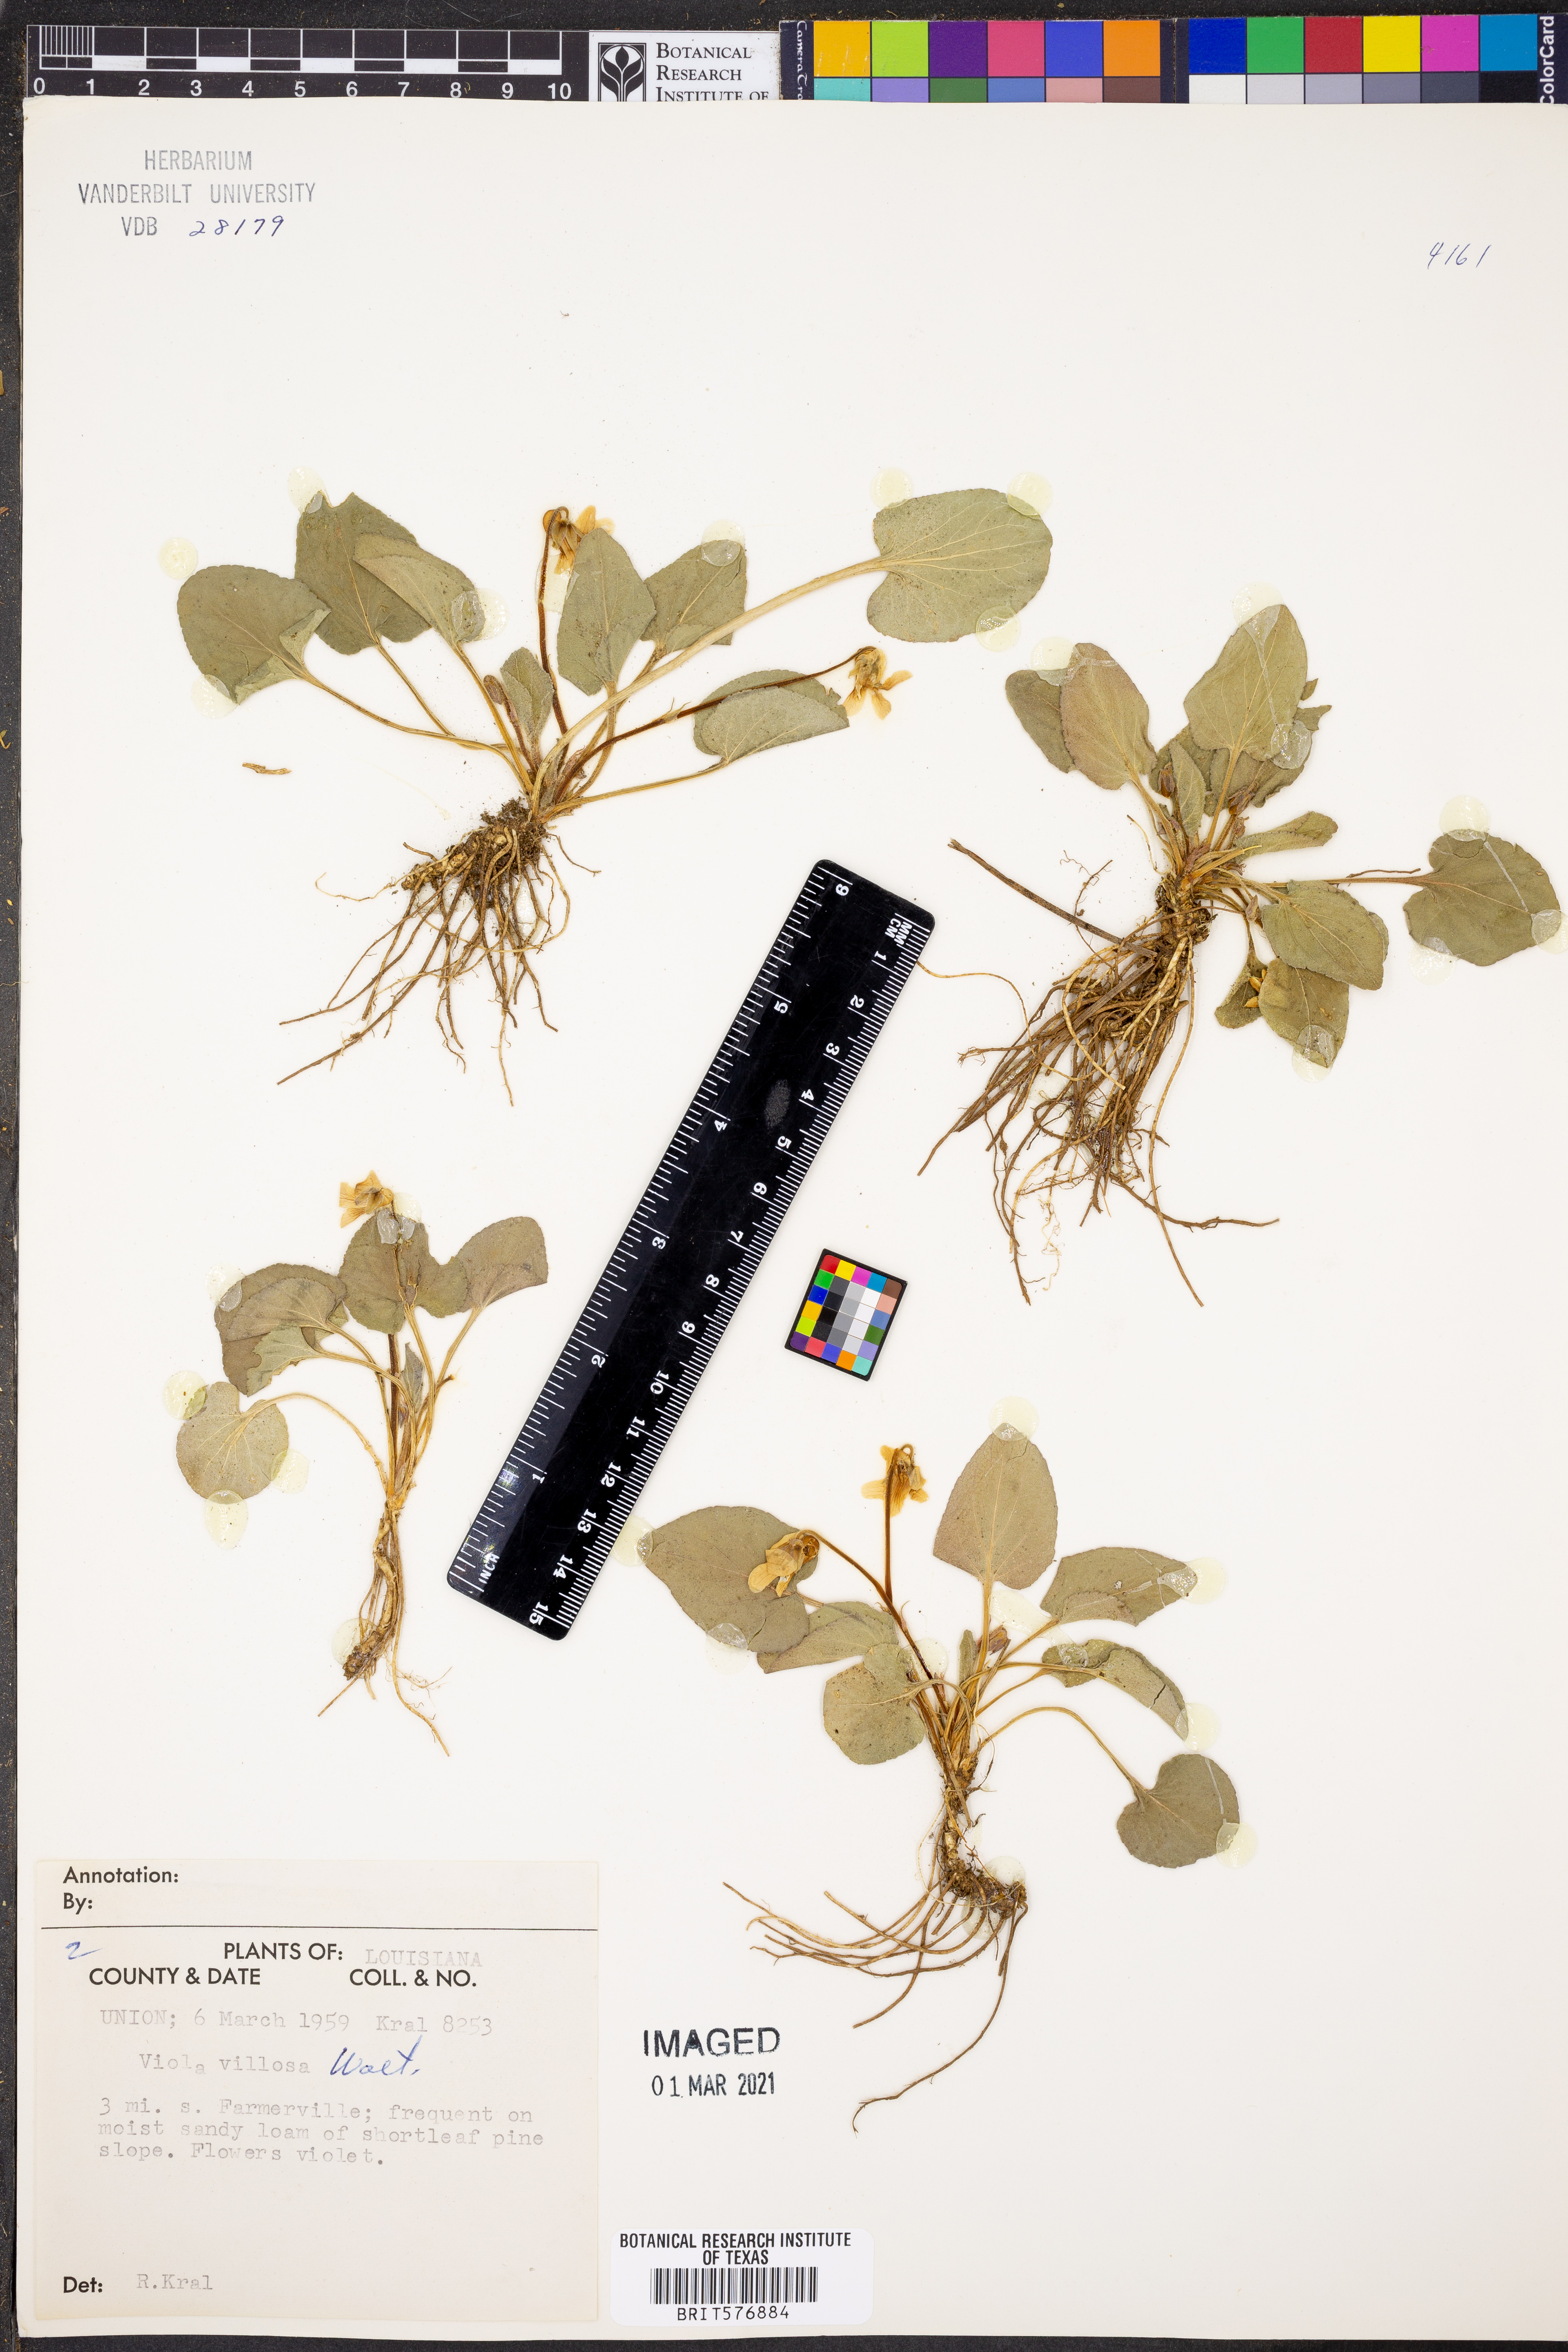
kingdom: Plantae
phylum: Tracheophyta
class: Magnoliopsida
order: Malpighiales
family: Violaceae
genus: Viola
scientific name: Viola villosa
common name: Carolina violet
